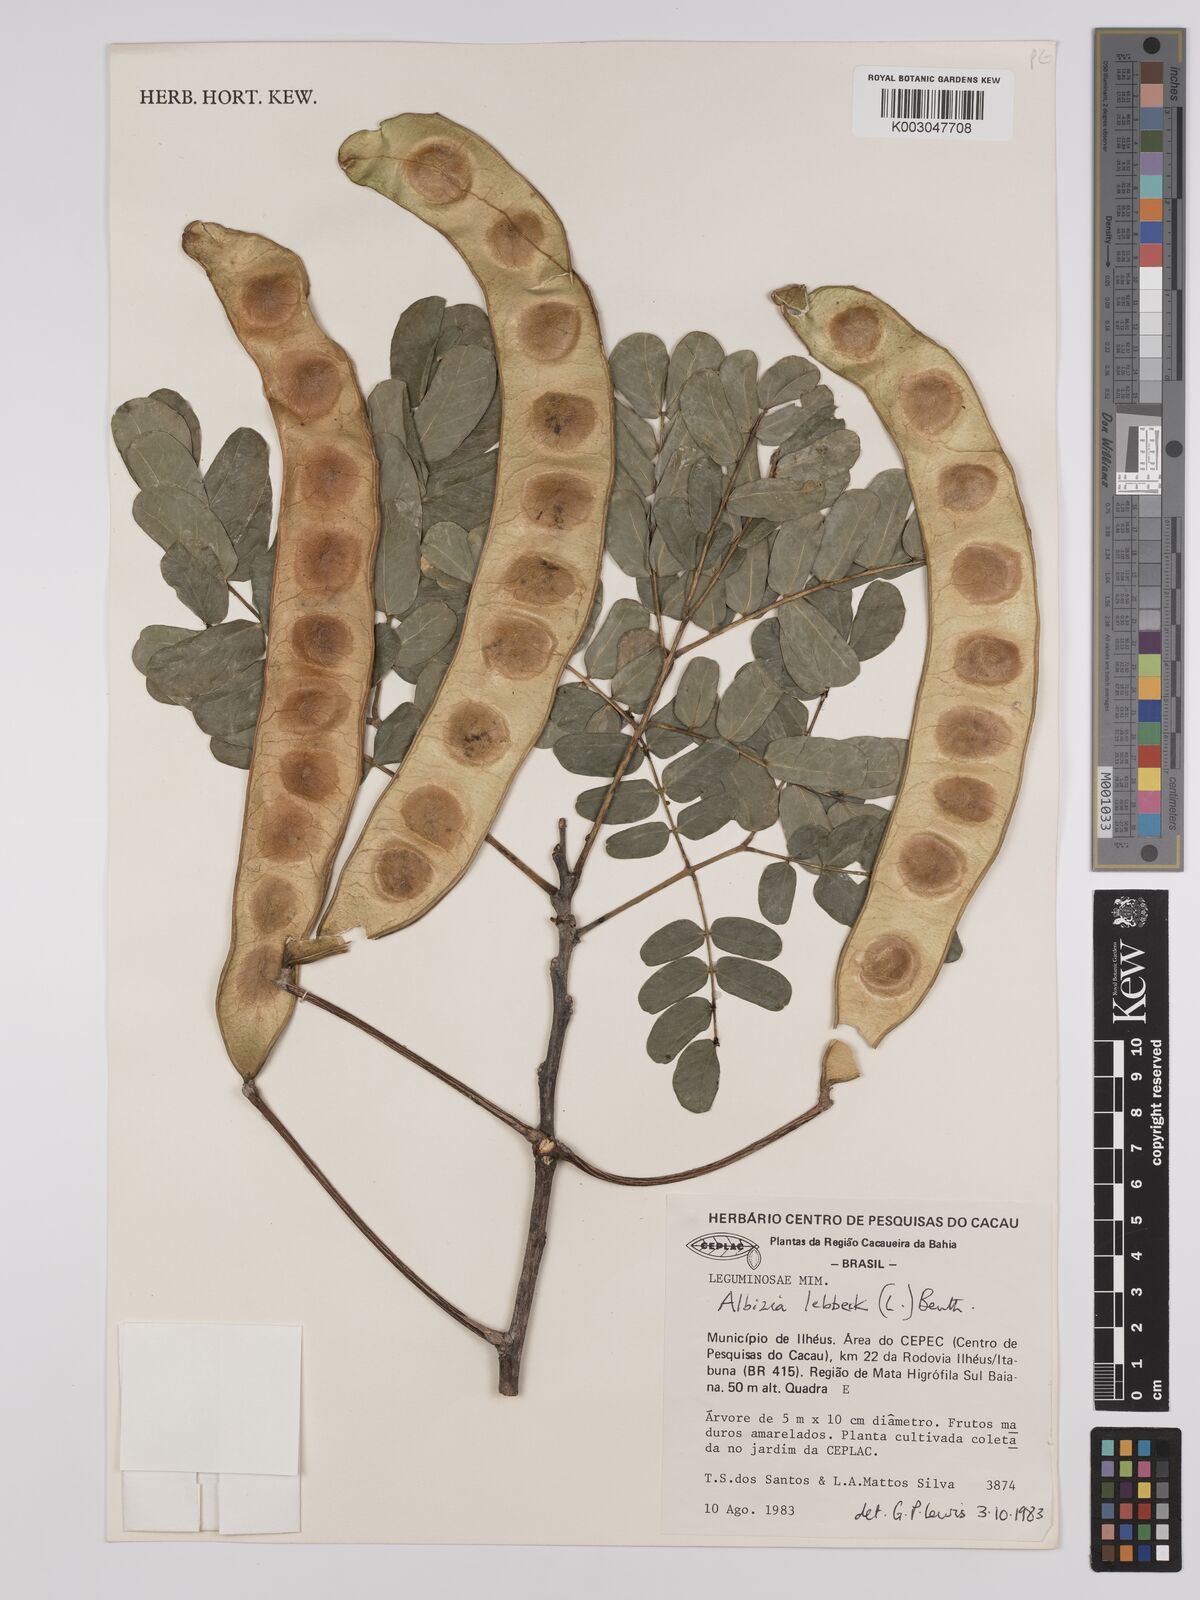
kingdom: Plantae
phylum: Tracheophyta
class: Magnoliopsida
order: Fabales
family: Fabaceae
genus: Albizia
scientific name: Albizia lebbeck
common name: Woman's tongue
